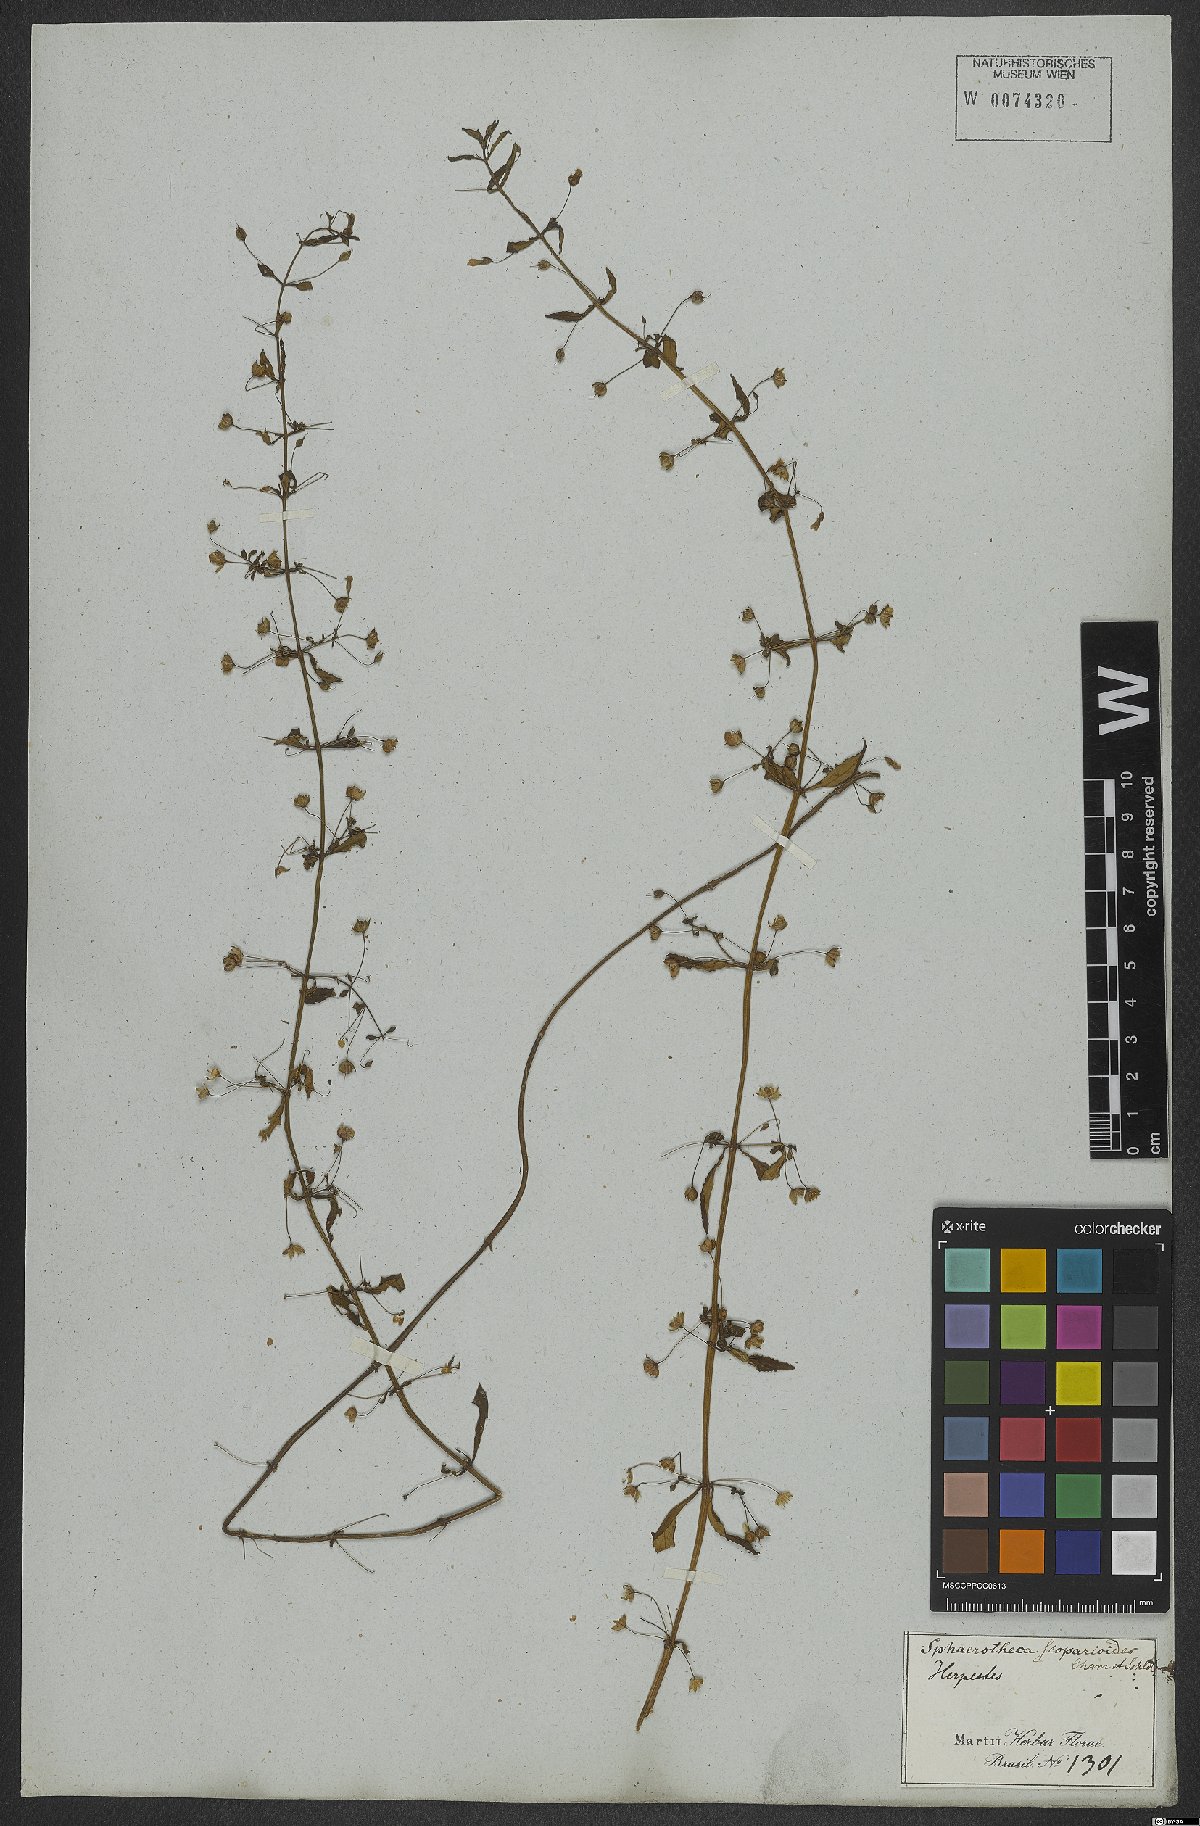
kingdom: Plantae
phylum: Tracheophyta
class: Magnoliopsida
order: Lamiales
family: Plantaginaceae
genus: Conobea
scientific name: Conobea scoparioides
